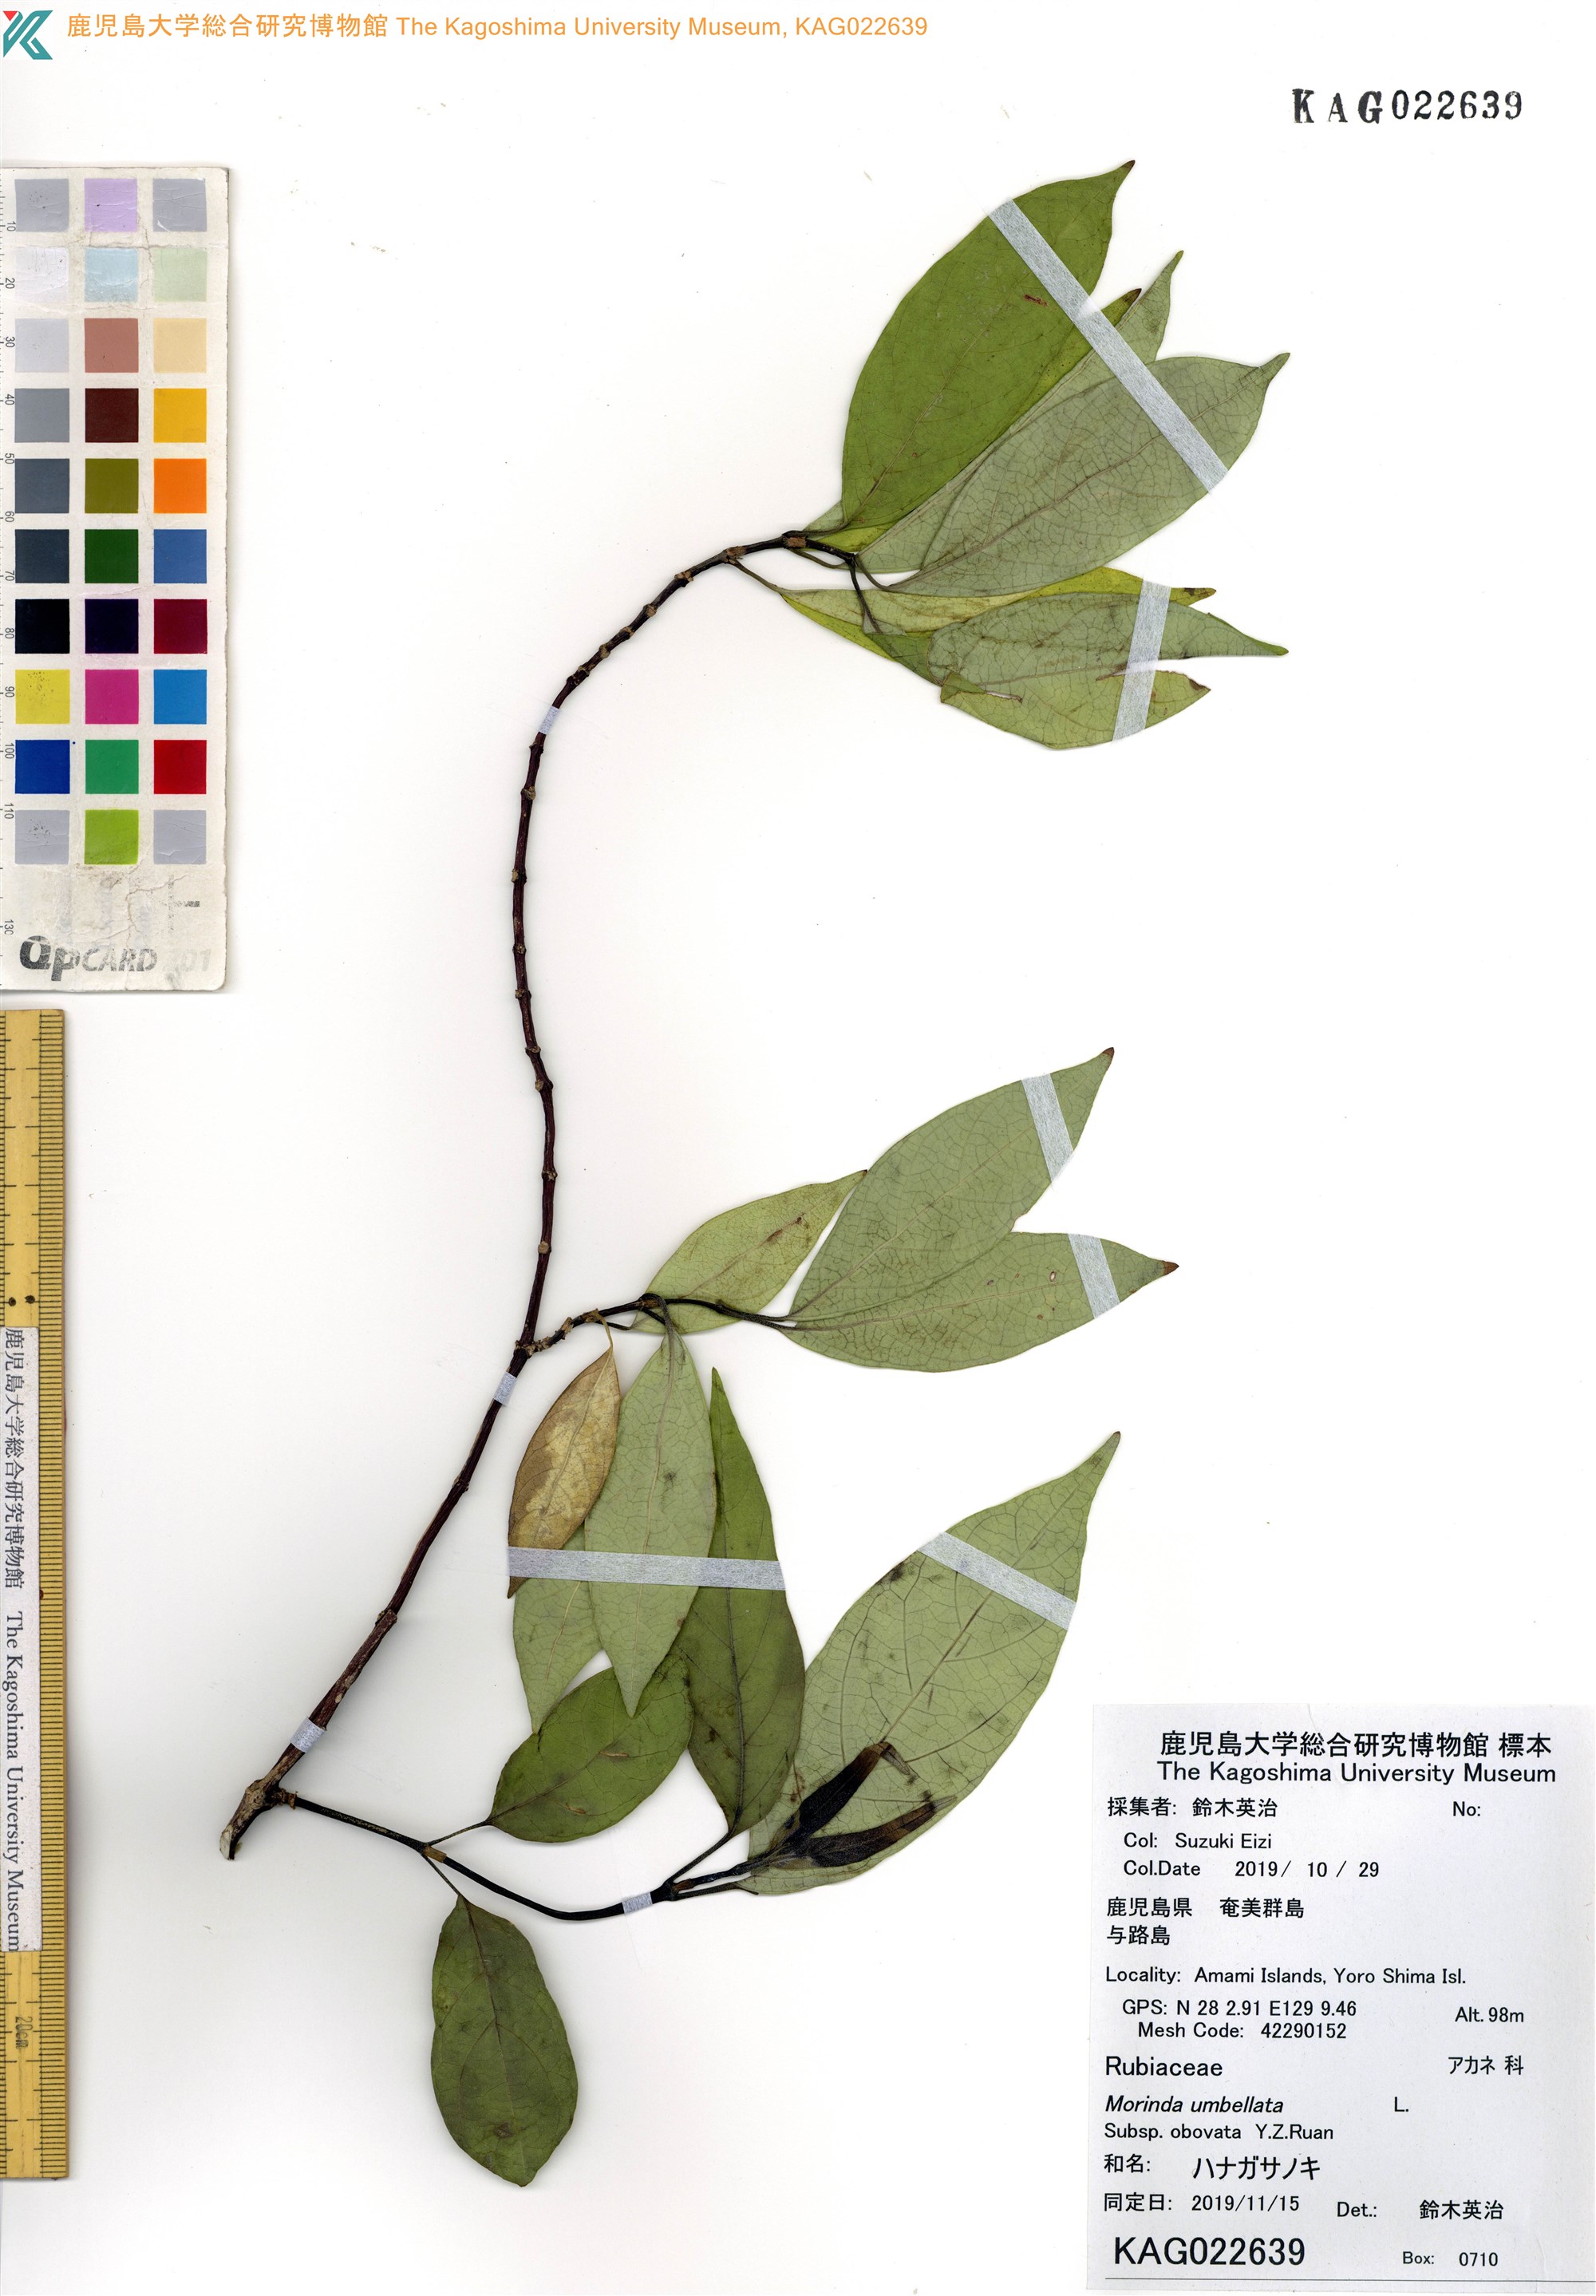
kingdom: Plantae
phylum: Tracheophyta
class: Magnoliopsida
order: Gentianales
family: Rubiaceae
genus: Gynochthodes
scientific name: Gynochthodes umbellata
